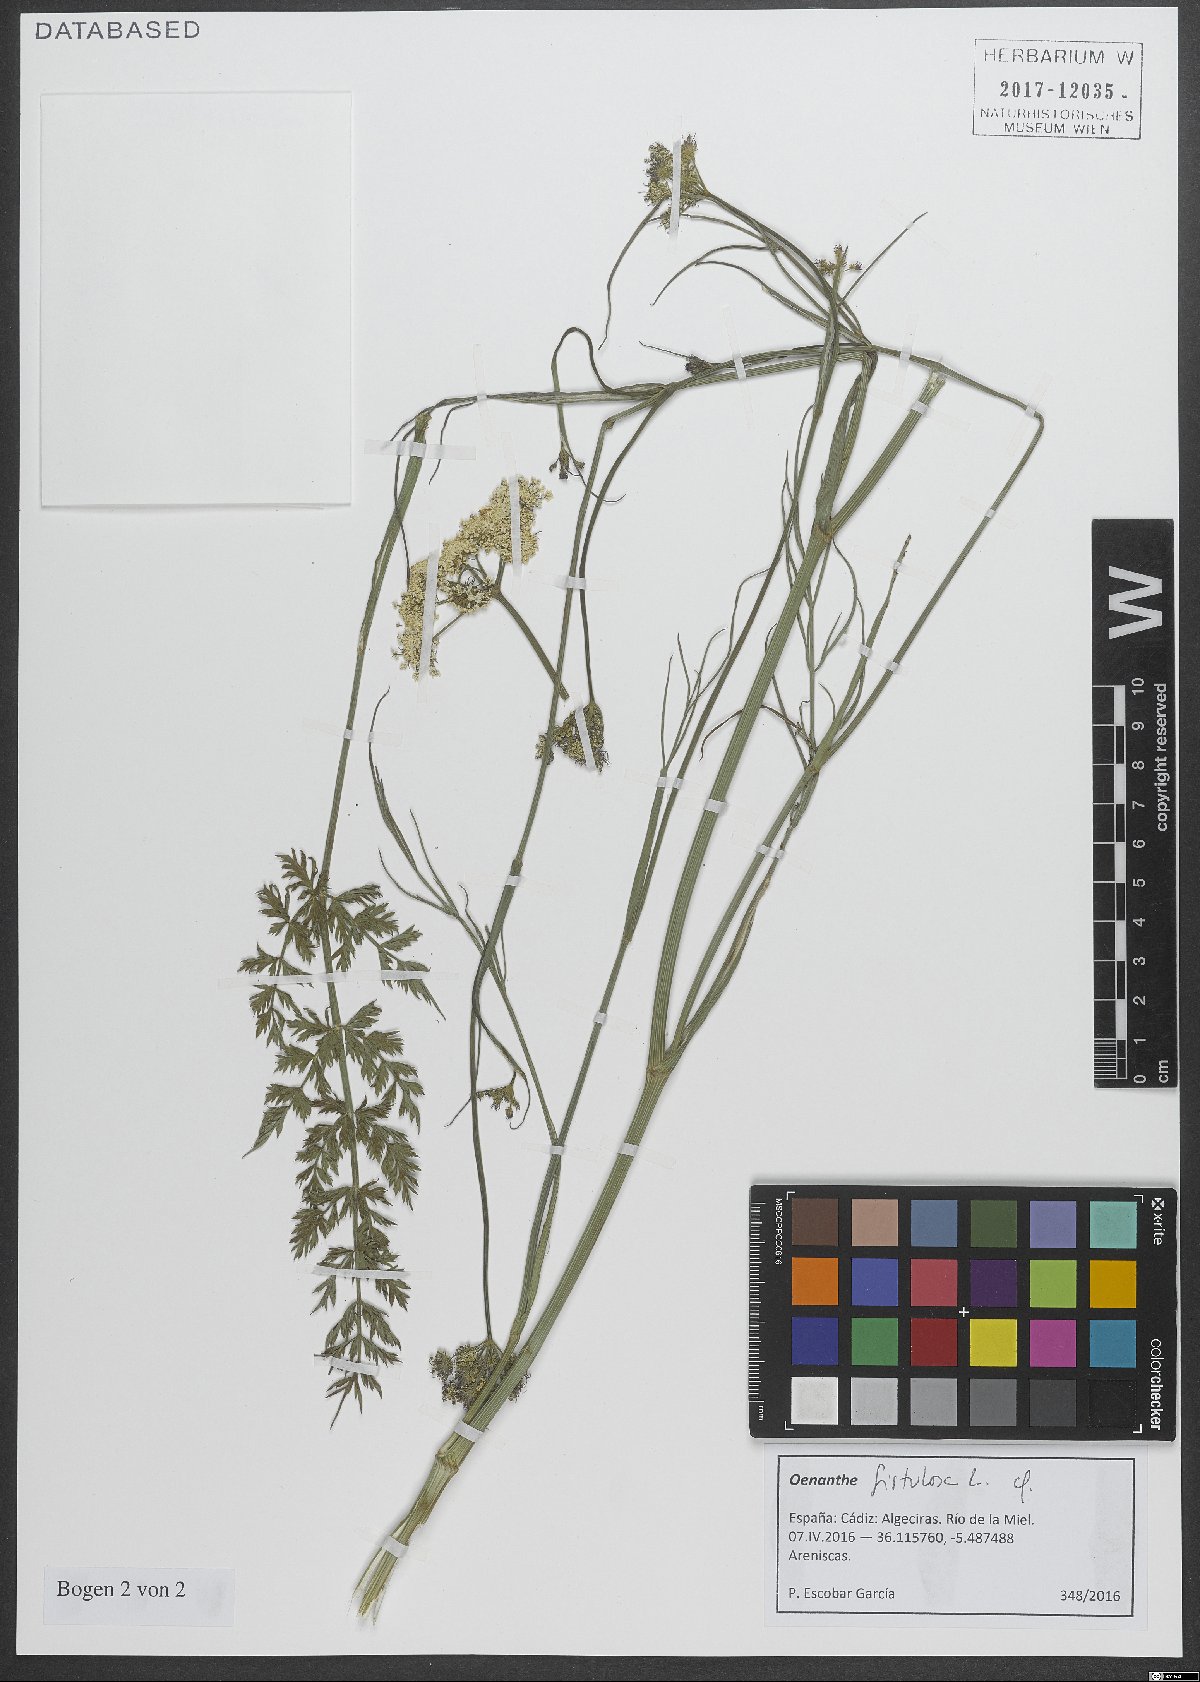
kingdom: Plantae
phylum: Tracheophyta
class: Magnoliopsida
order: Apiales
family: Apiaceae
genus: Oenanthe
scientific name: Oenanthe fistulosa
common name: Tubular water-dropwort
